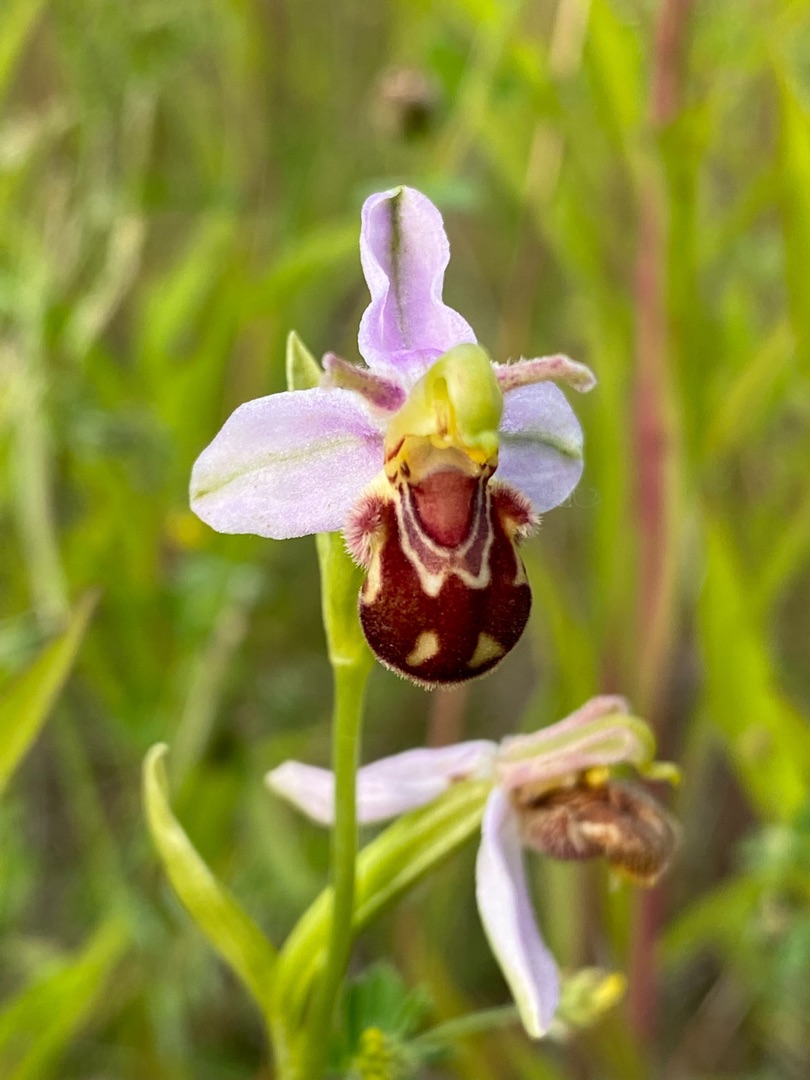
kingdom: Plantae
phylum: Tracheophyta
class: Liliopsida
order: Asparagales
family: Orchidaceae
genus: Ophrys
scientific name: Ophrys apifera
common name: Biblomst
